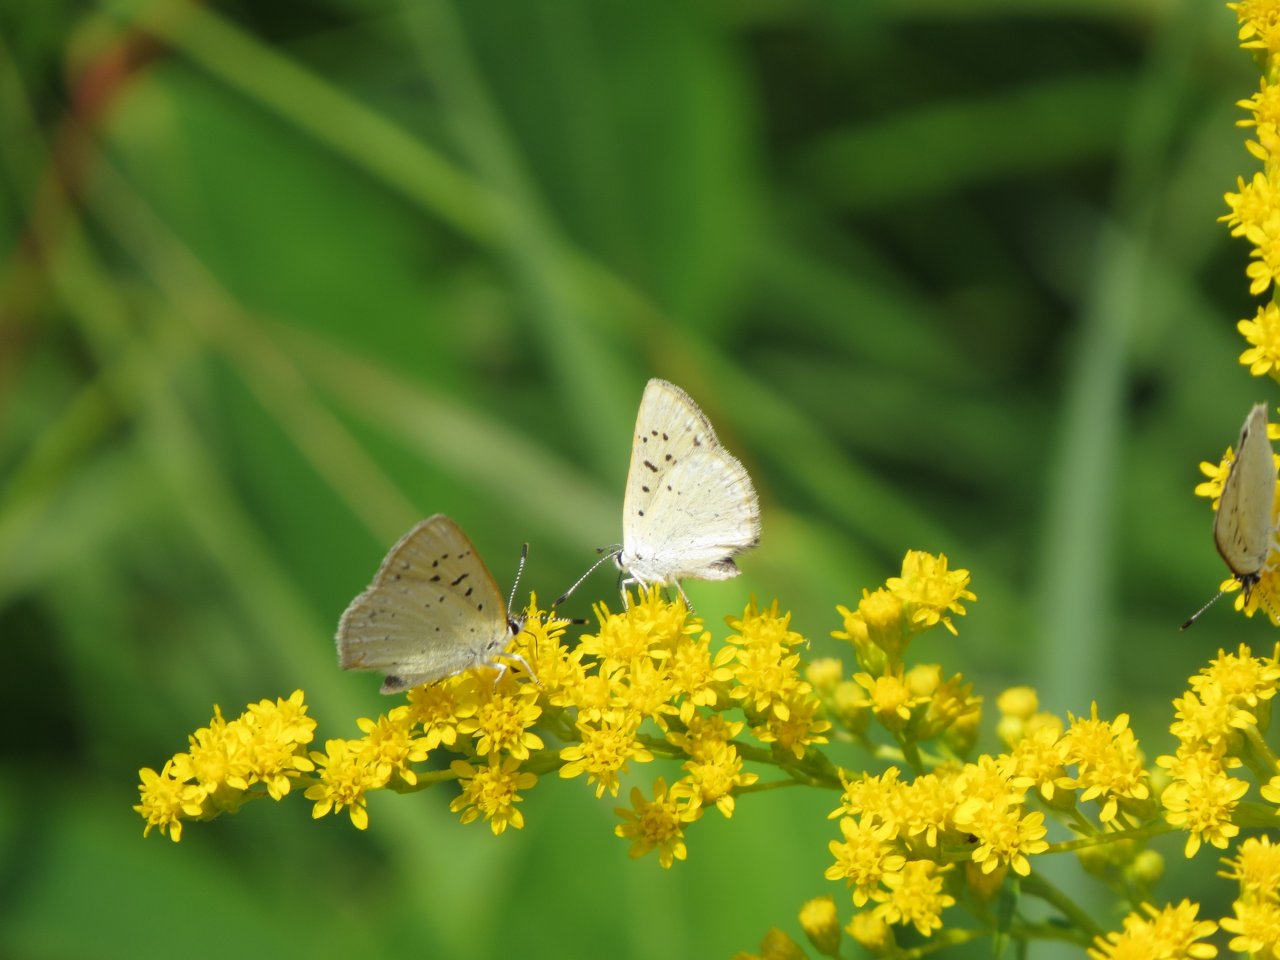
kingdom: Animalia
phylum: Arthropoda
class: Insecta
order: Lepidoptera
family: Sesiidae
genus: Sesia
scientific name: Sesia Lycaena epixanthe
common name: Bog Copper
